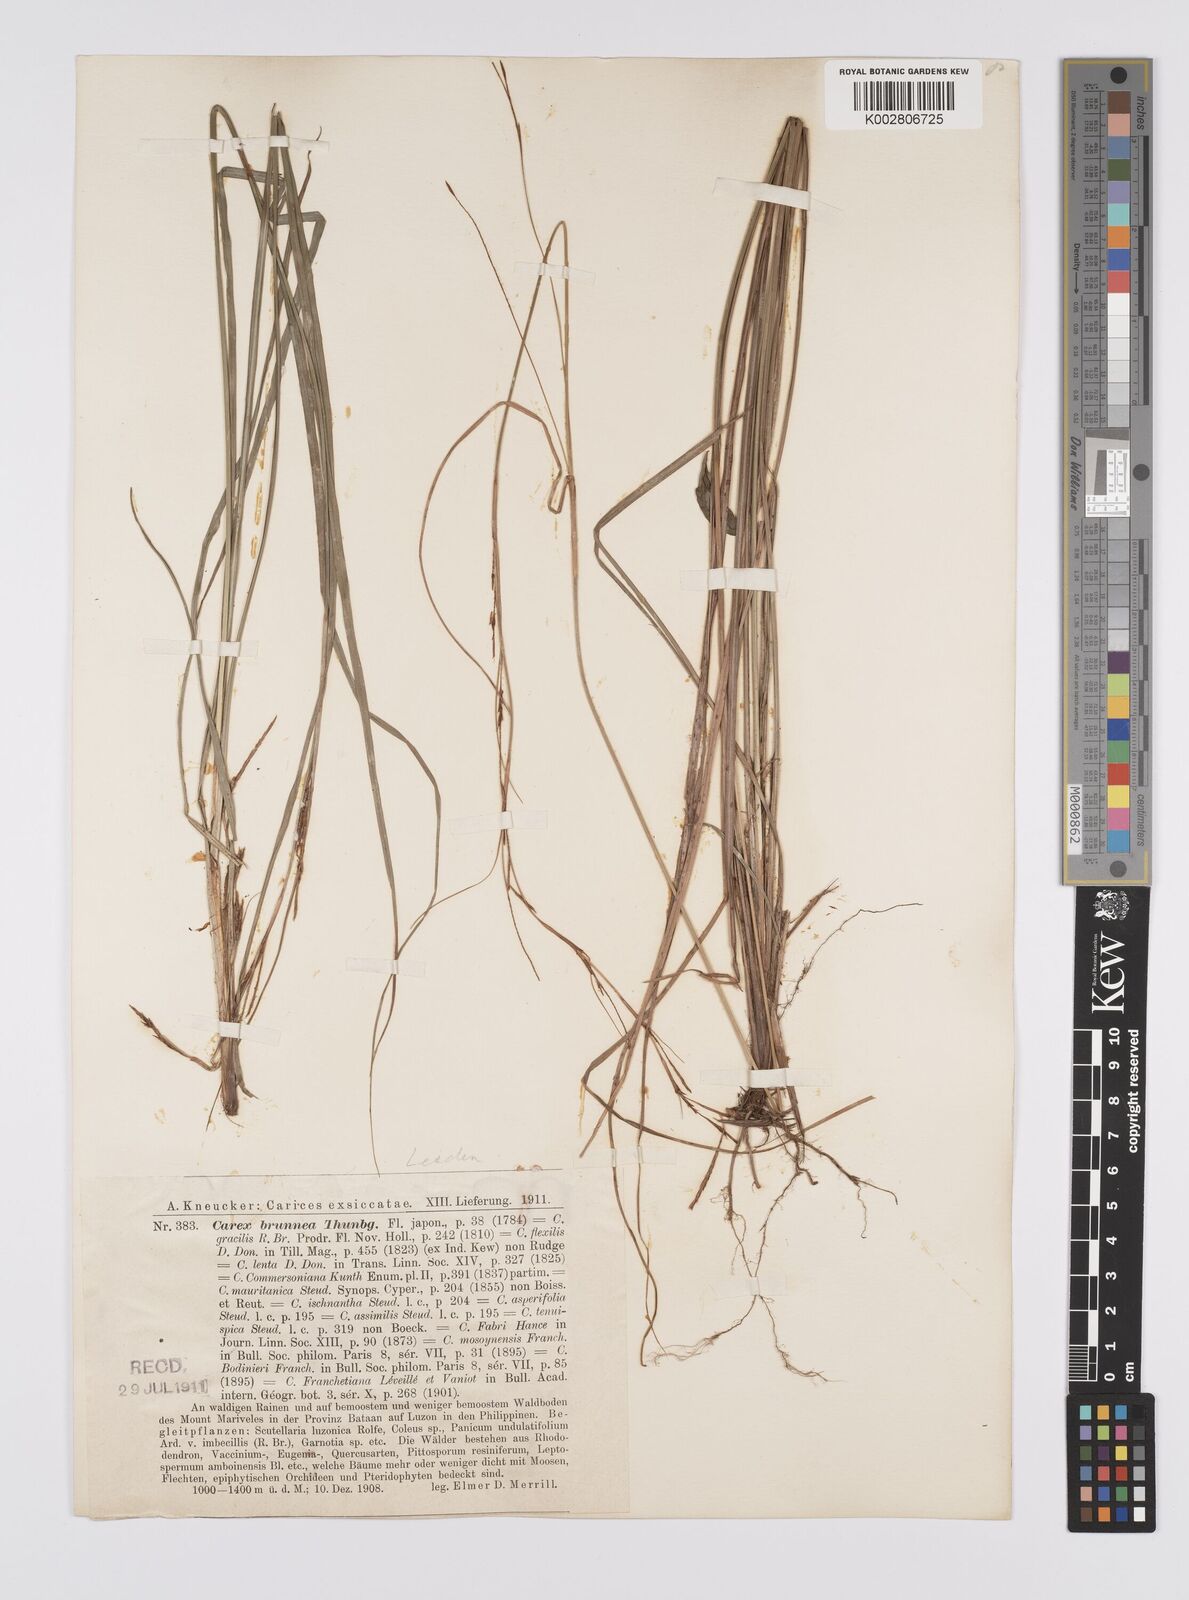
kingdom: Plantae
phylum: Tracheophyta
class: Liliopsida
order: Poales
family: Cyperaceae
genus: Carex
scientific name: Carex brunnea
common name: Greater brown sedge
